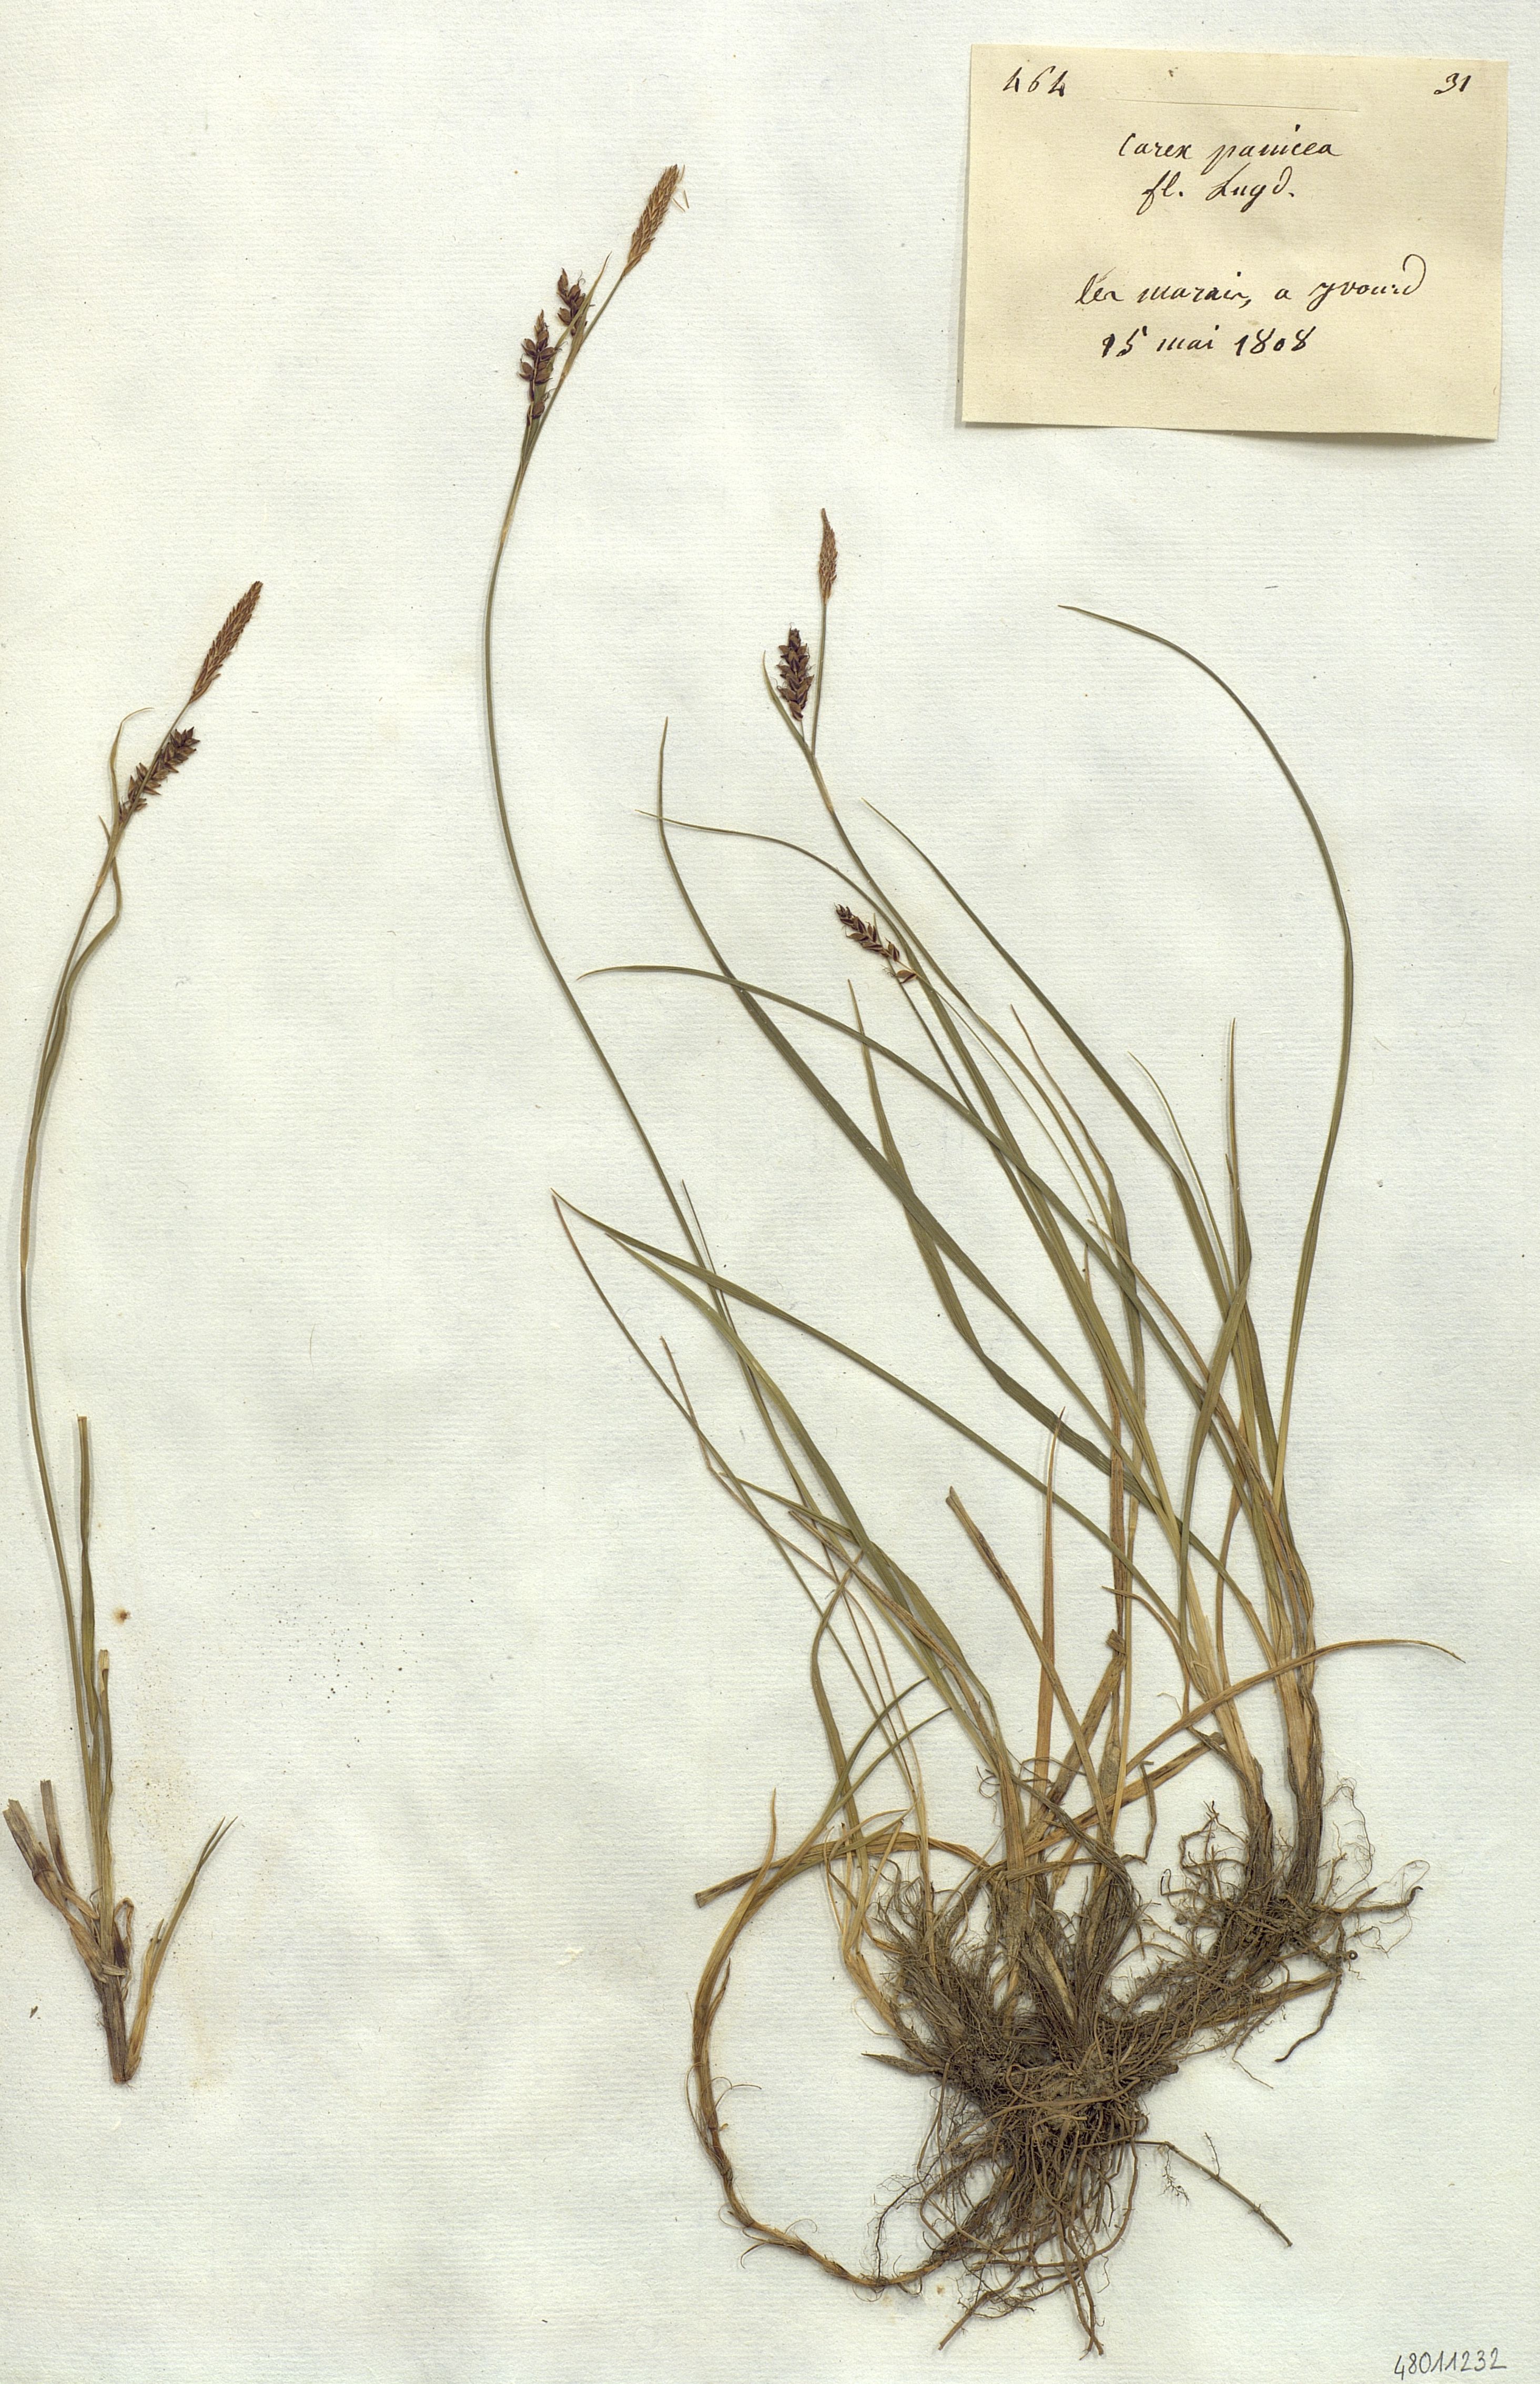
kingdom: Plantae
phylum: Tracheophyta
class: Liliopsida
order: Poales
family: Cyperaceae
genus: Carex
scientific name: Carex panicea
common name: Carnation sedge
